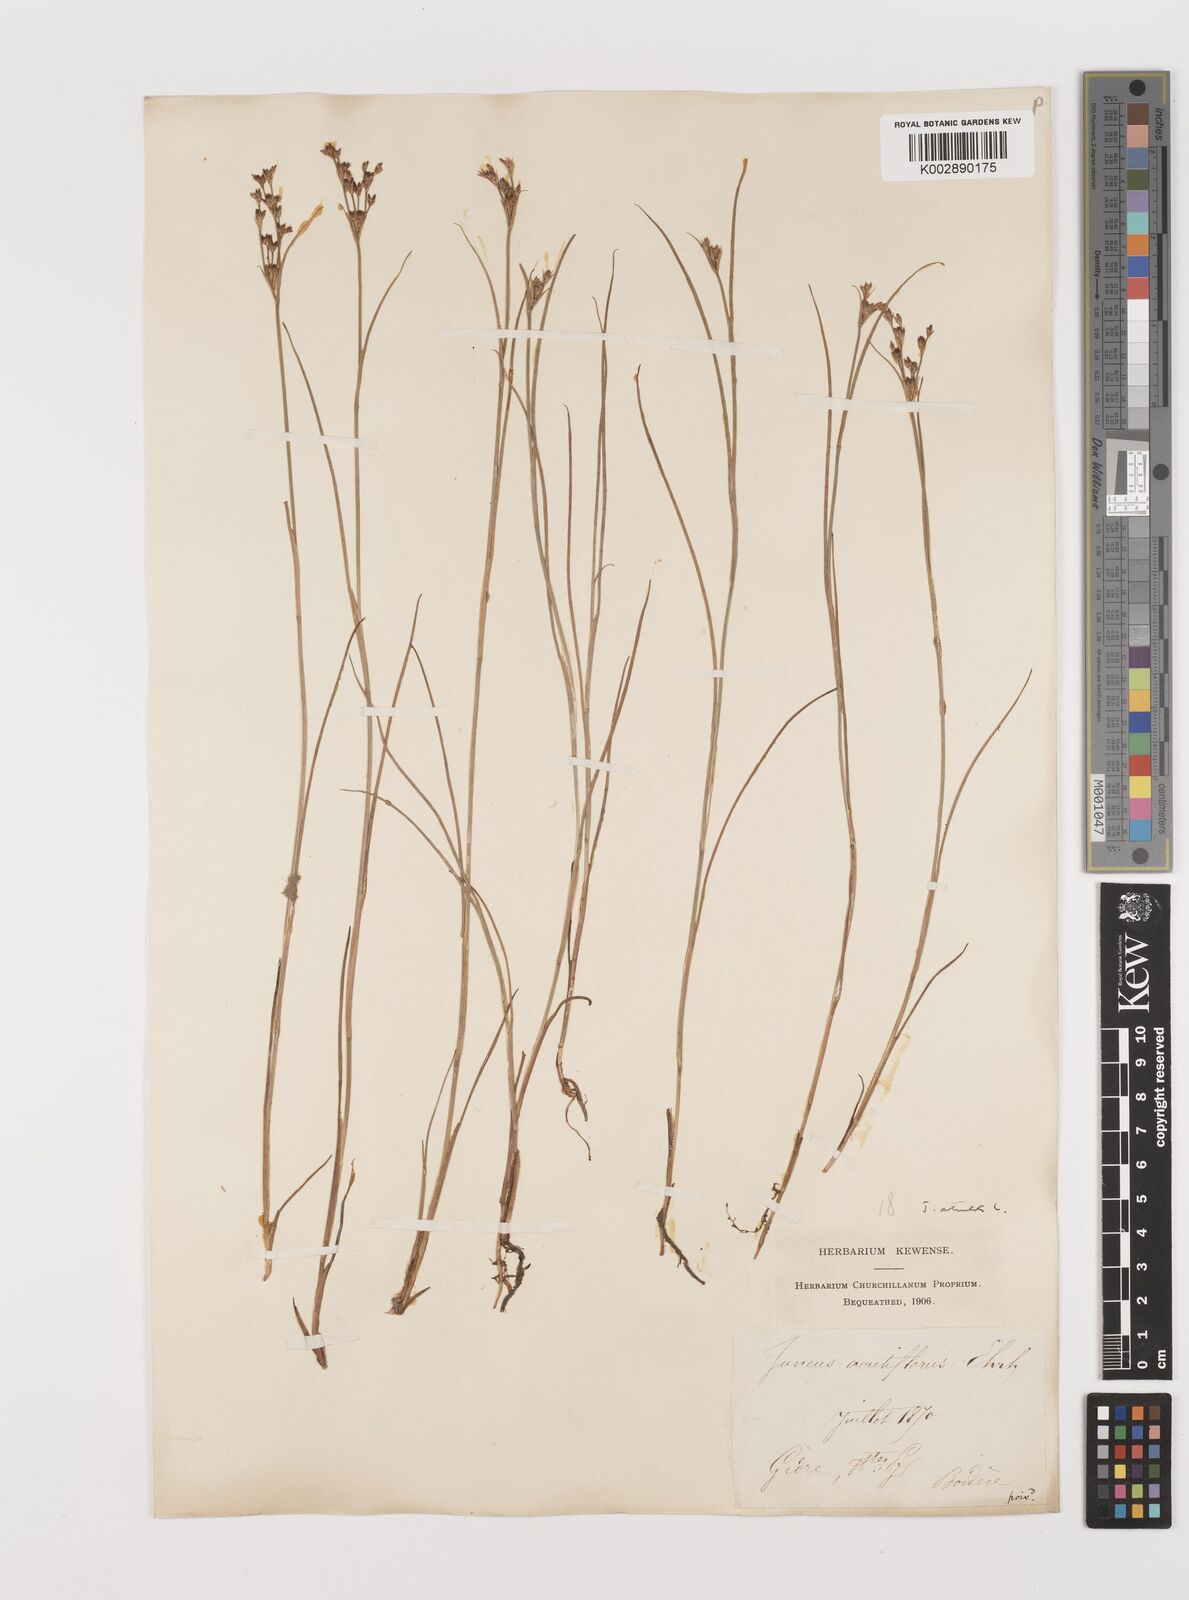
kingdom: Plantae
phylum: Tracheophyta
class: Liliopsida
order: Poales
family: Juncaceae
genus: Juncus
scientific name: Juncus articulatus
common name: Jointed rush
